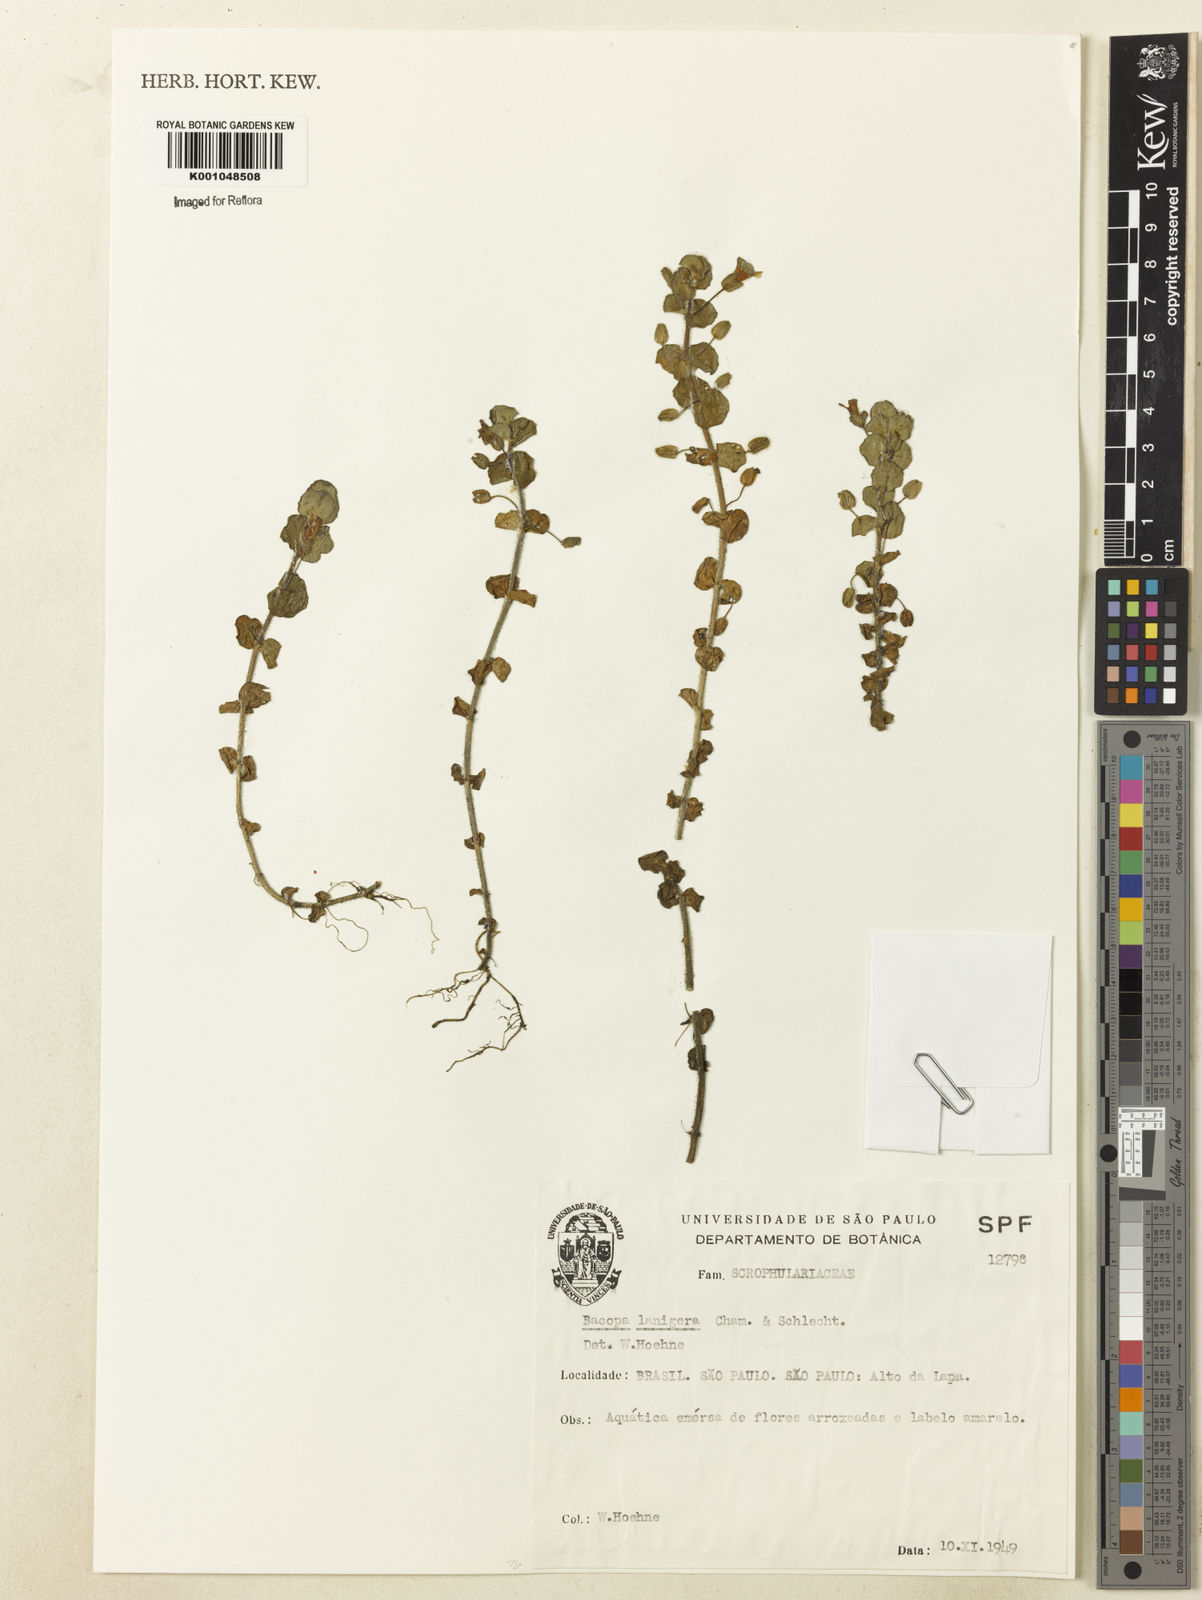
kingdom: Plantae
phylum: Tracheophyta
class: Magnoliopsida
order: Lamiales
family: Plantaginaceae
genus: Bacopa
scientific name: Bacopa lanigera
